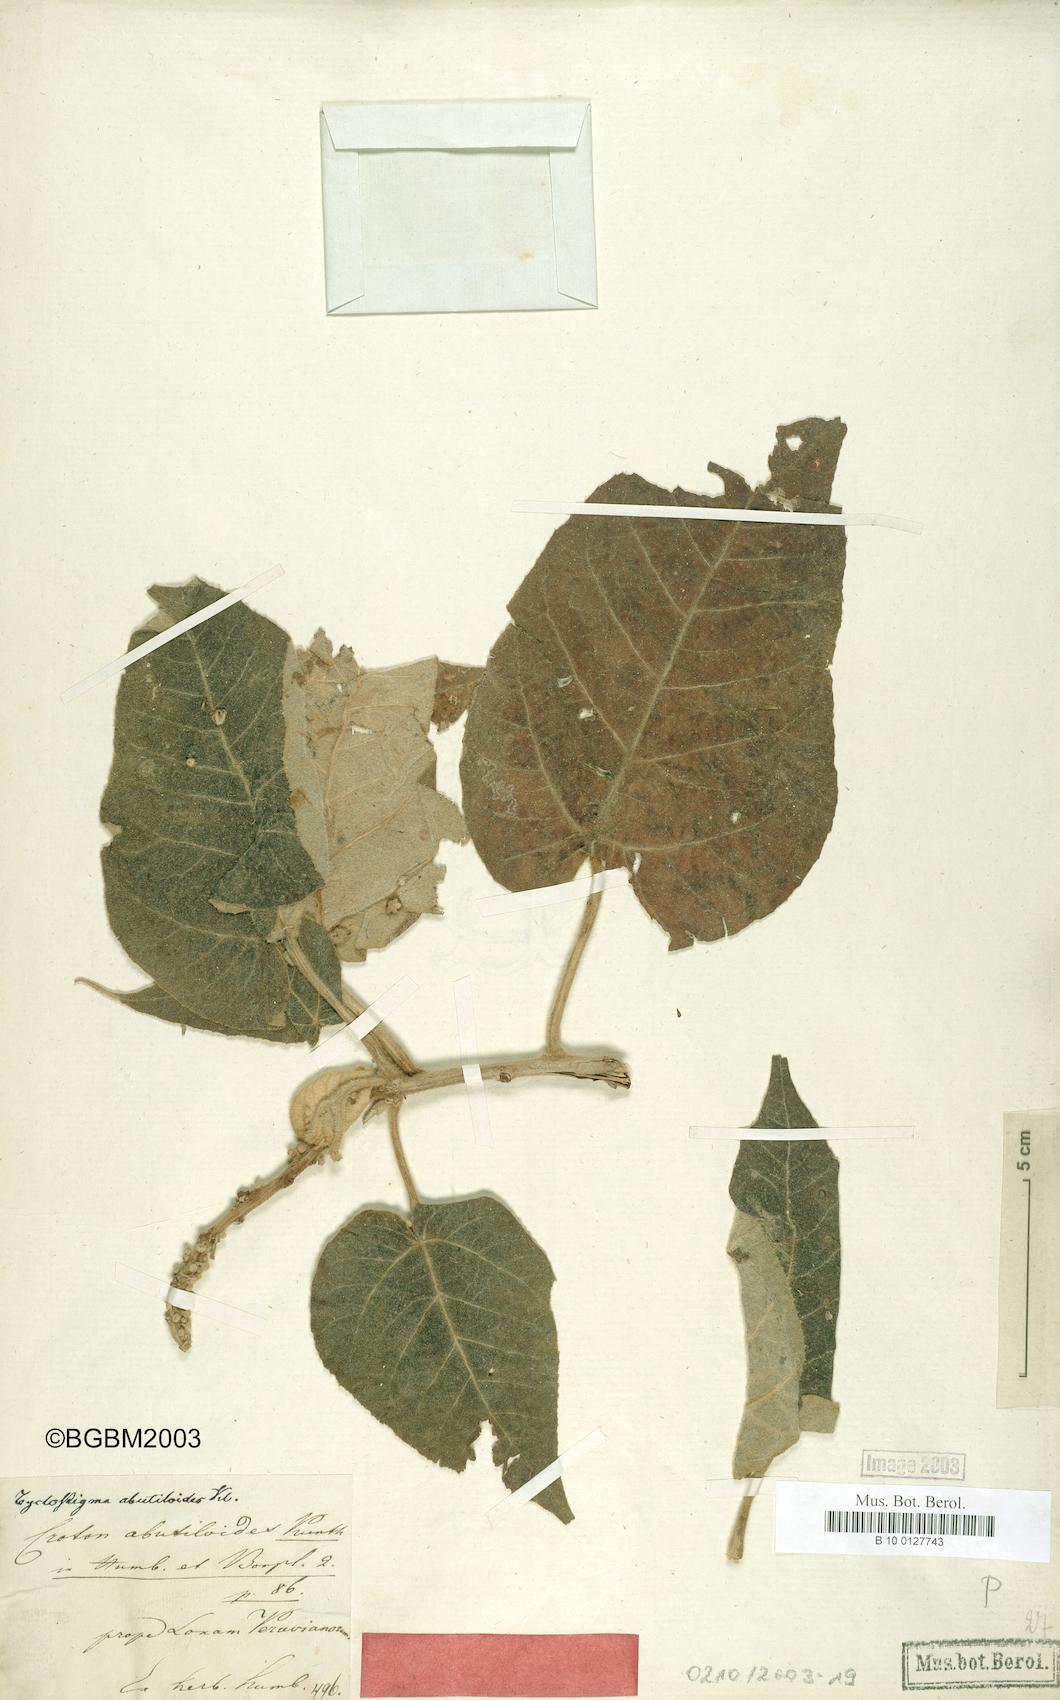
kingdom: Plantae
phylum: Tracheophyta
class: Magnoliopsida
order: Malpighiales
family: Euphorbiaceae
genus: Croton
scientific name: Croton abutiloides
